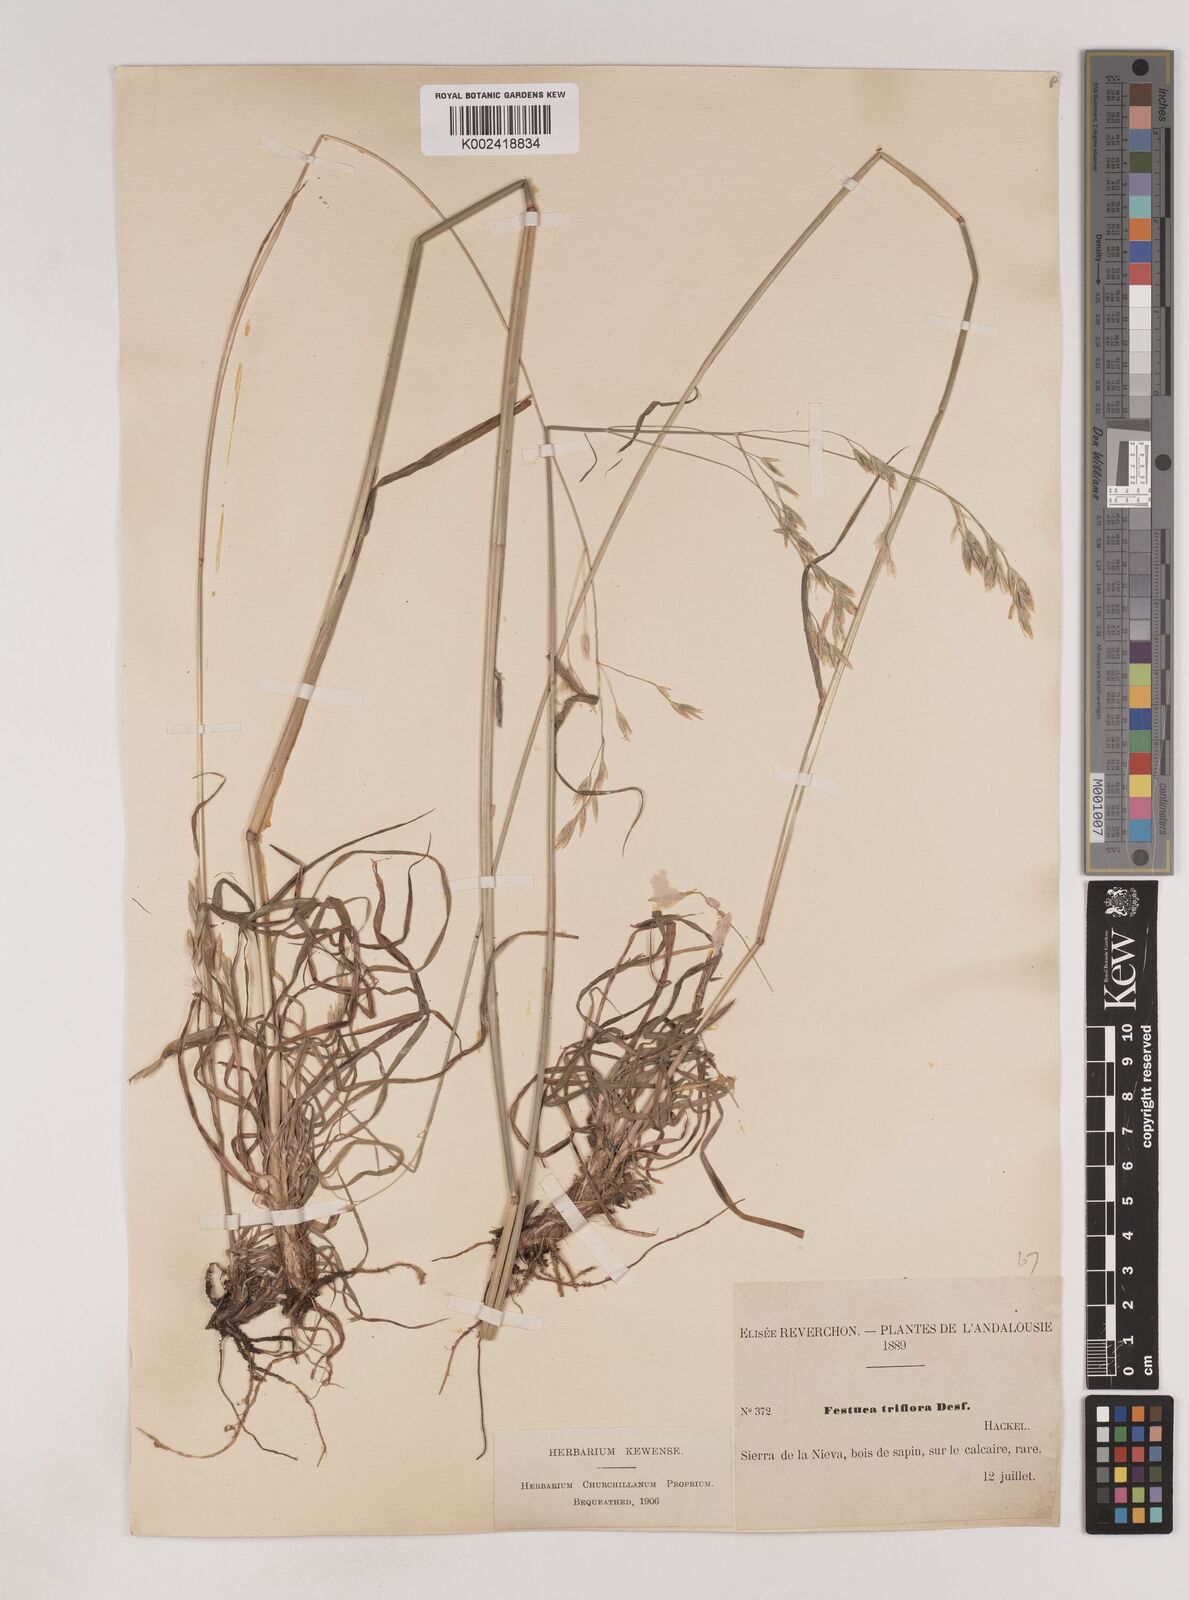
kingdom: Plantae
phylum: Tracheophyta
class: Liliopsida
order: Poales
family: Poaceae
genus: Patzkea
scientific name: Patzkea patula
